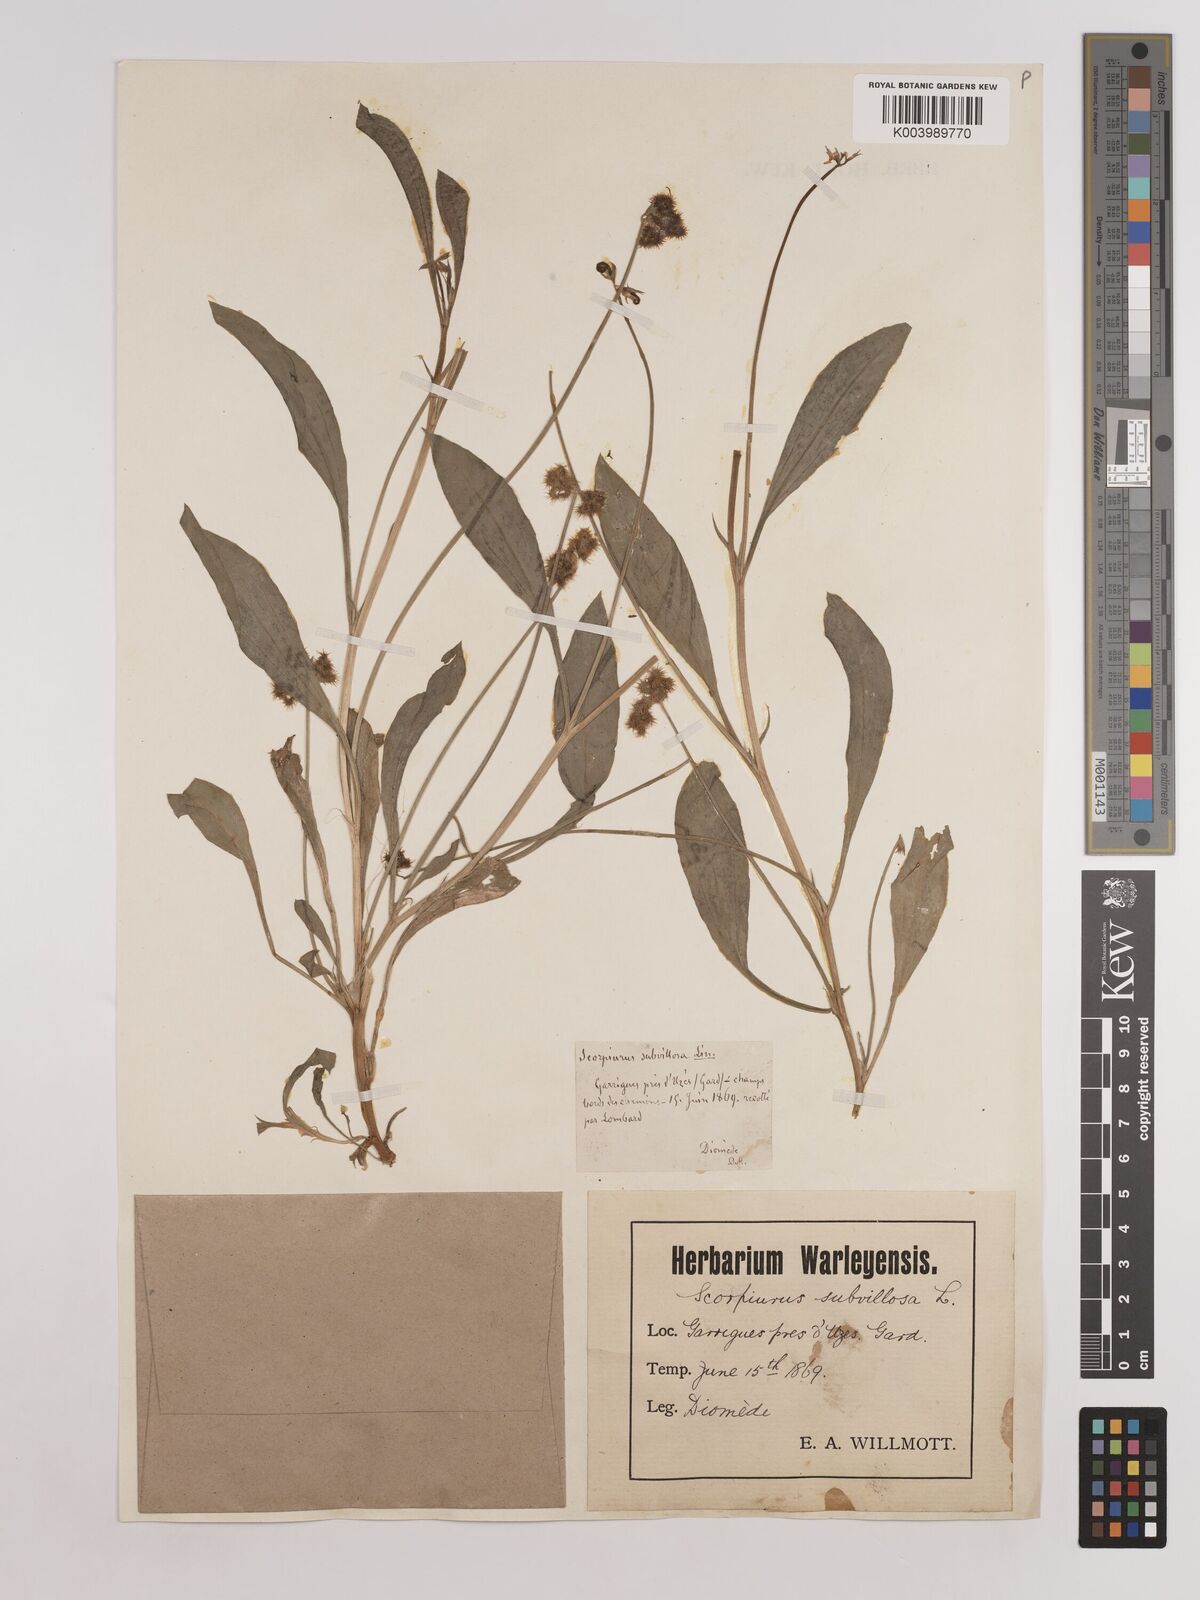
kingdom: Plantae
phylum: Tracheophyta
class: Magnoliopsida
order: Fabales
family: Fabaceae
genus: Scorpiurus
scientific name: Scorpiurus muricatus
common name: Caterpillar-plant
